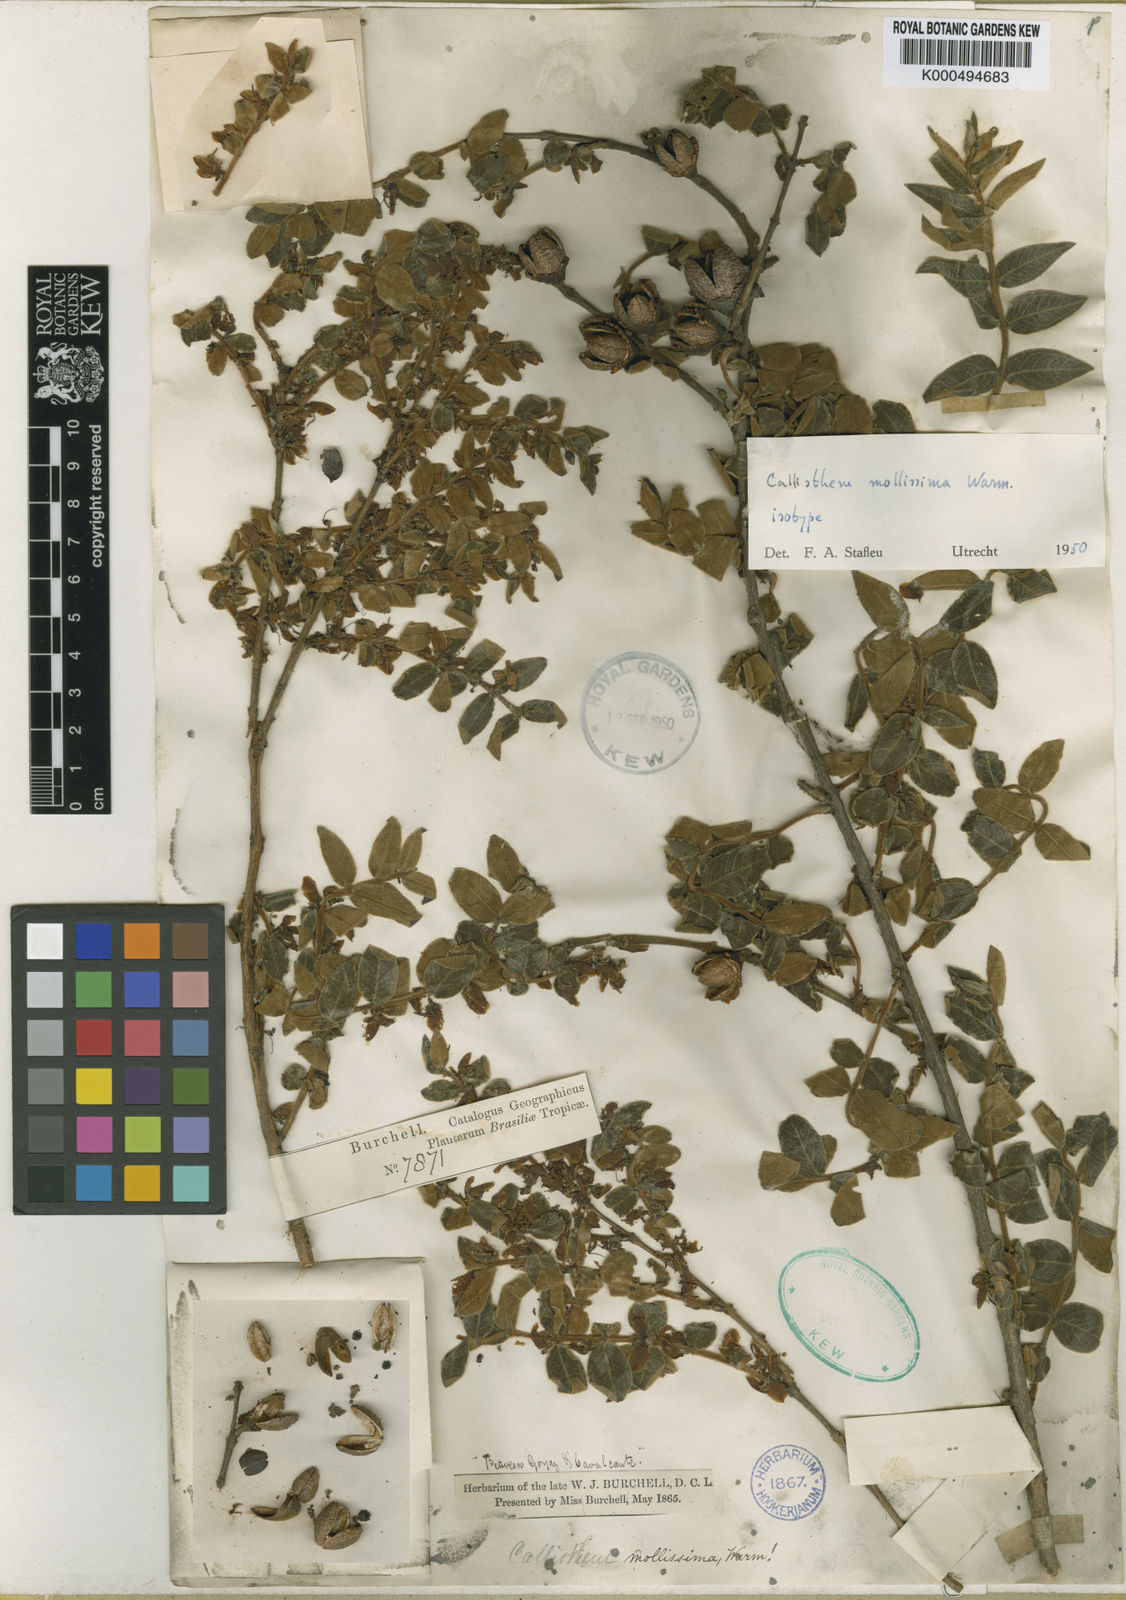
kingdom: Plantae
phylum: Tracheophyta
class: Magnoliopsida
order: Myrtales
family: Vochysiaceae
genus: Callisthene
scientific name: Callisthene mollissima
